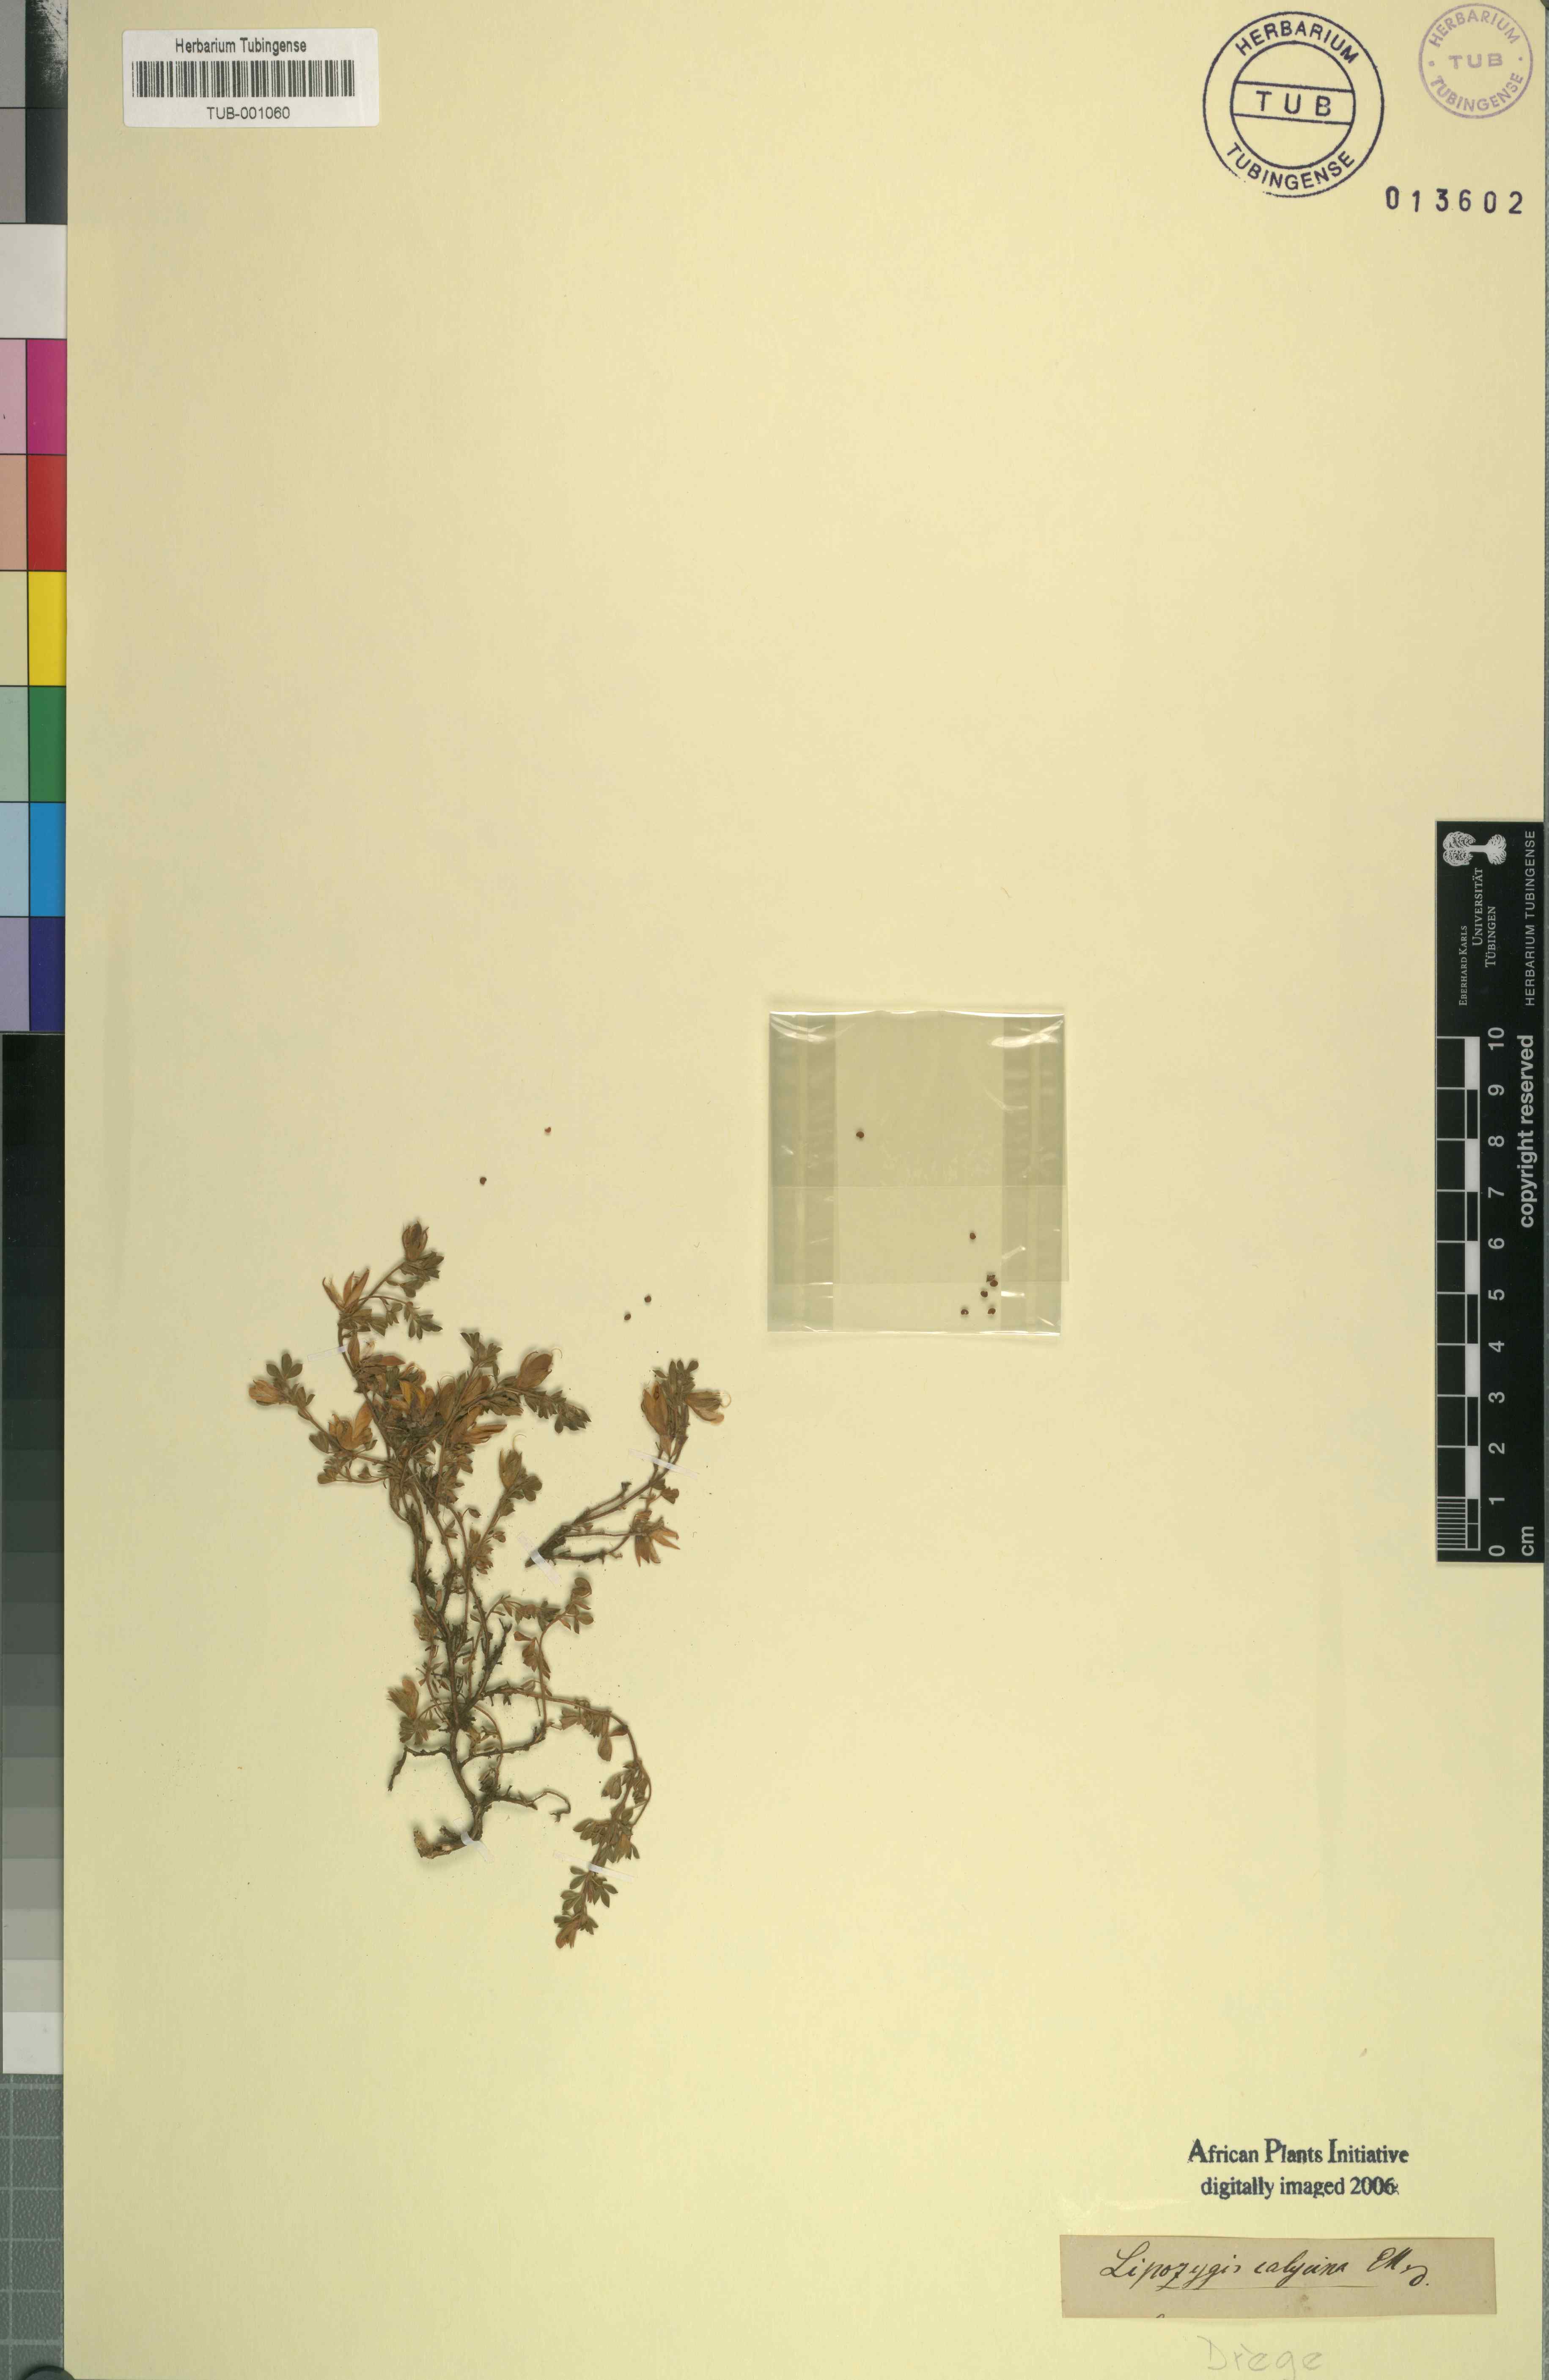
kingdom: Plantae
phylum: Tracheophyta
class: Magnoliopsida
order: Fabales
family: Fabaceae
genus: Leobordea
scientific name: Leobordea divaricata
